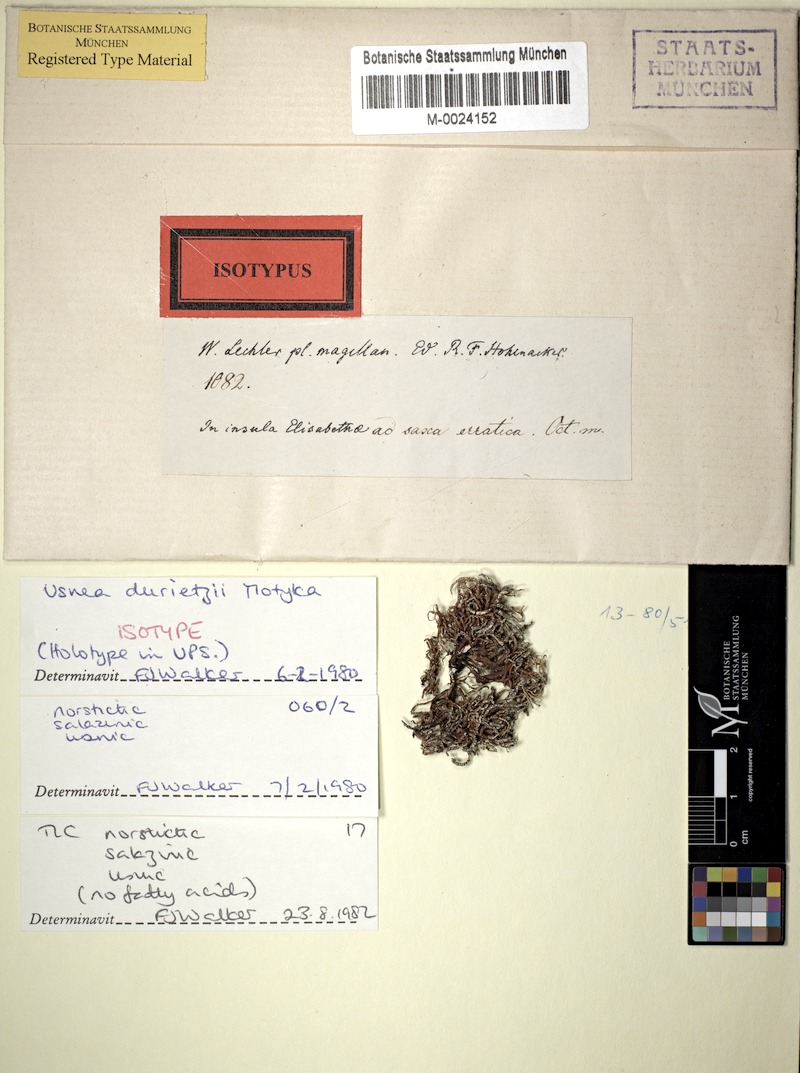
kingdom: Fungi
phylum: Ascomycota
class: Lecanoromycetes
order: Lecanorales
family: Parmeliaceae
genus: Usnea
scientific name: Usnea durietzii
